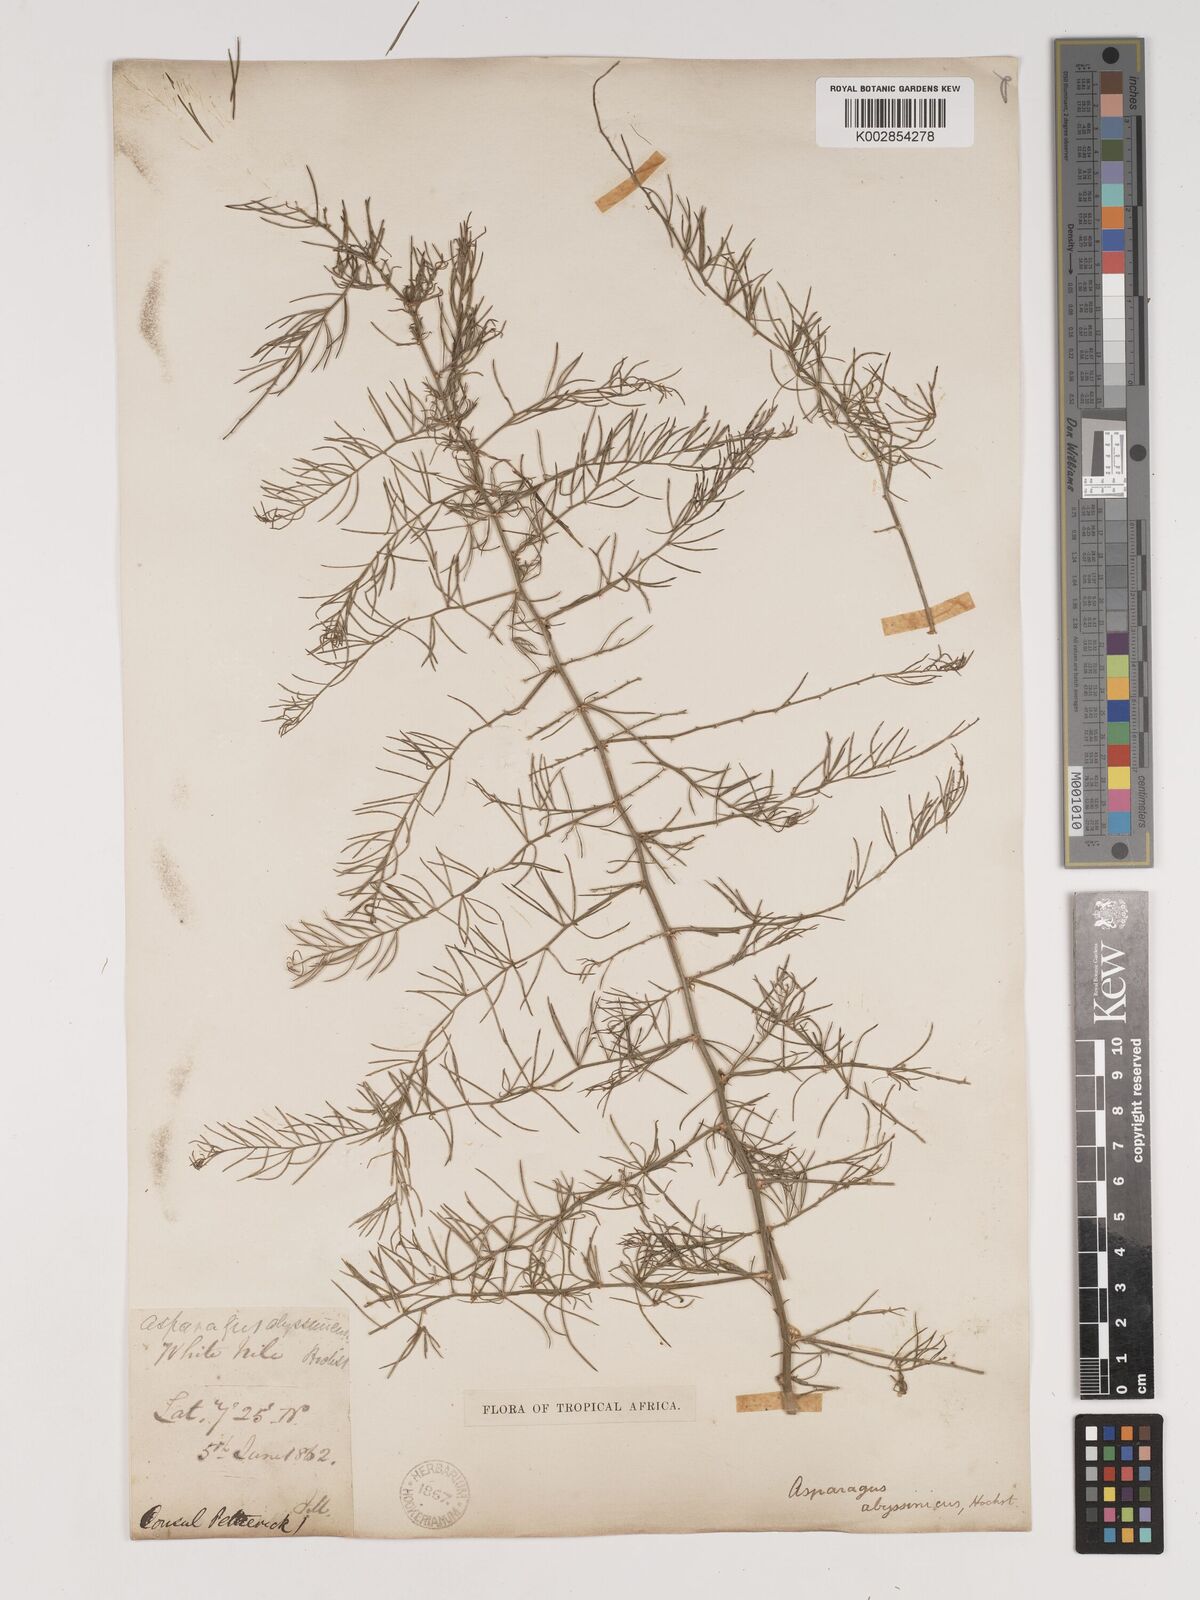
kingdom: Plantae
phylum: Tracheophyta
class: Liliopsida
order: Asparagales
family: Asparagaceae
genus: Asparagus
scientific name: Asparagus africanus
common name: Asparagus-fern
